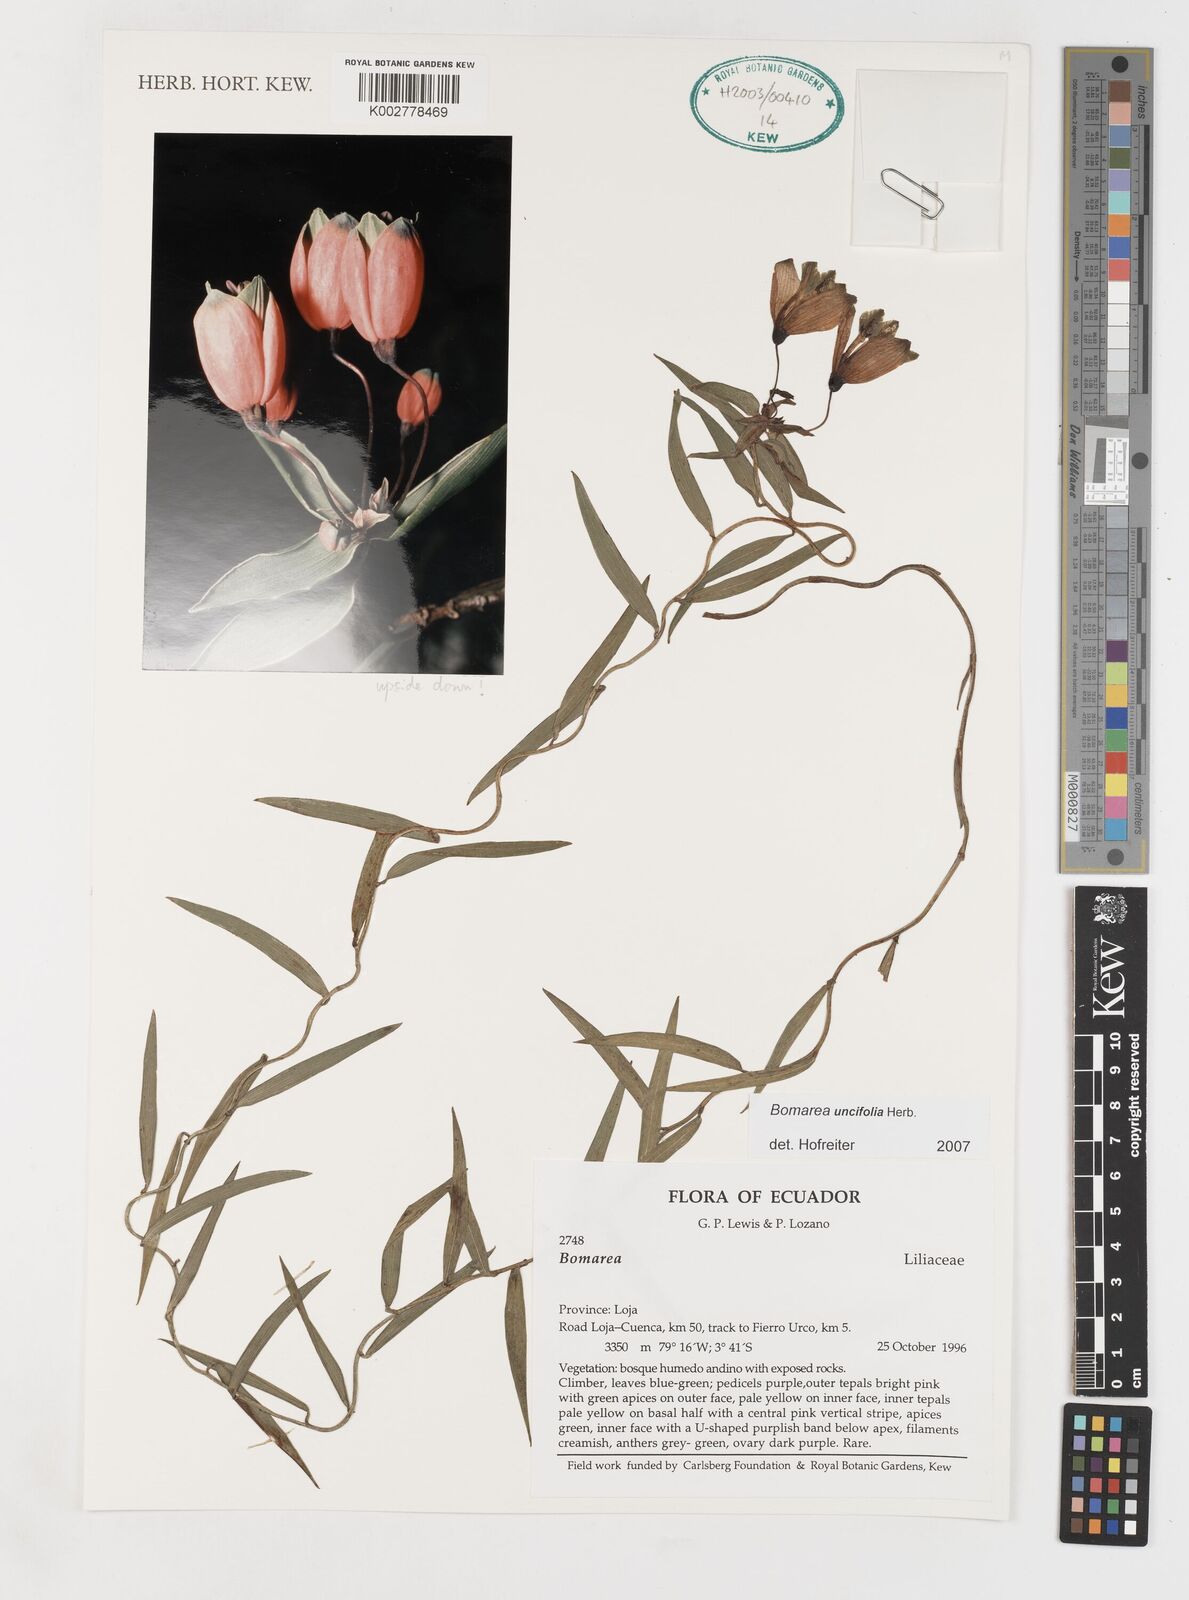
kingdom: Plantae
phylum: Tracheophyta
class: Liliopsida
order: Liliales
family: Alstroemeriaceae
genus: Bomarea
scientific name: Bomarea uncifolia
